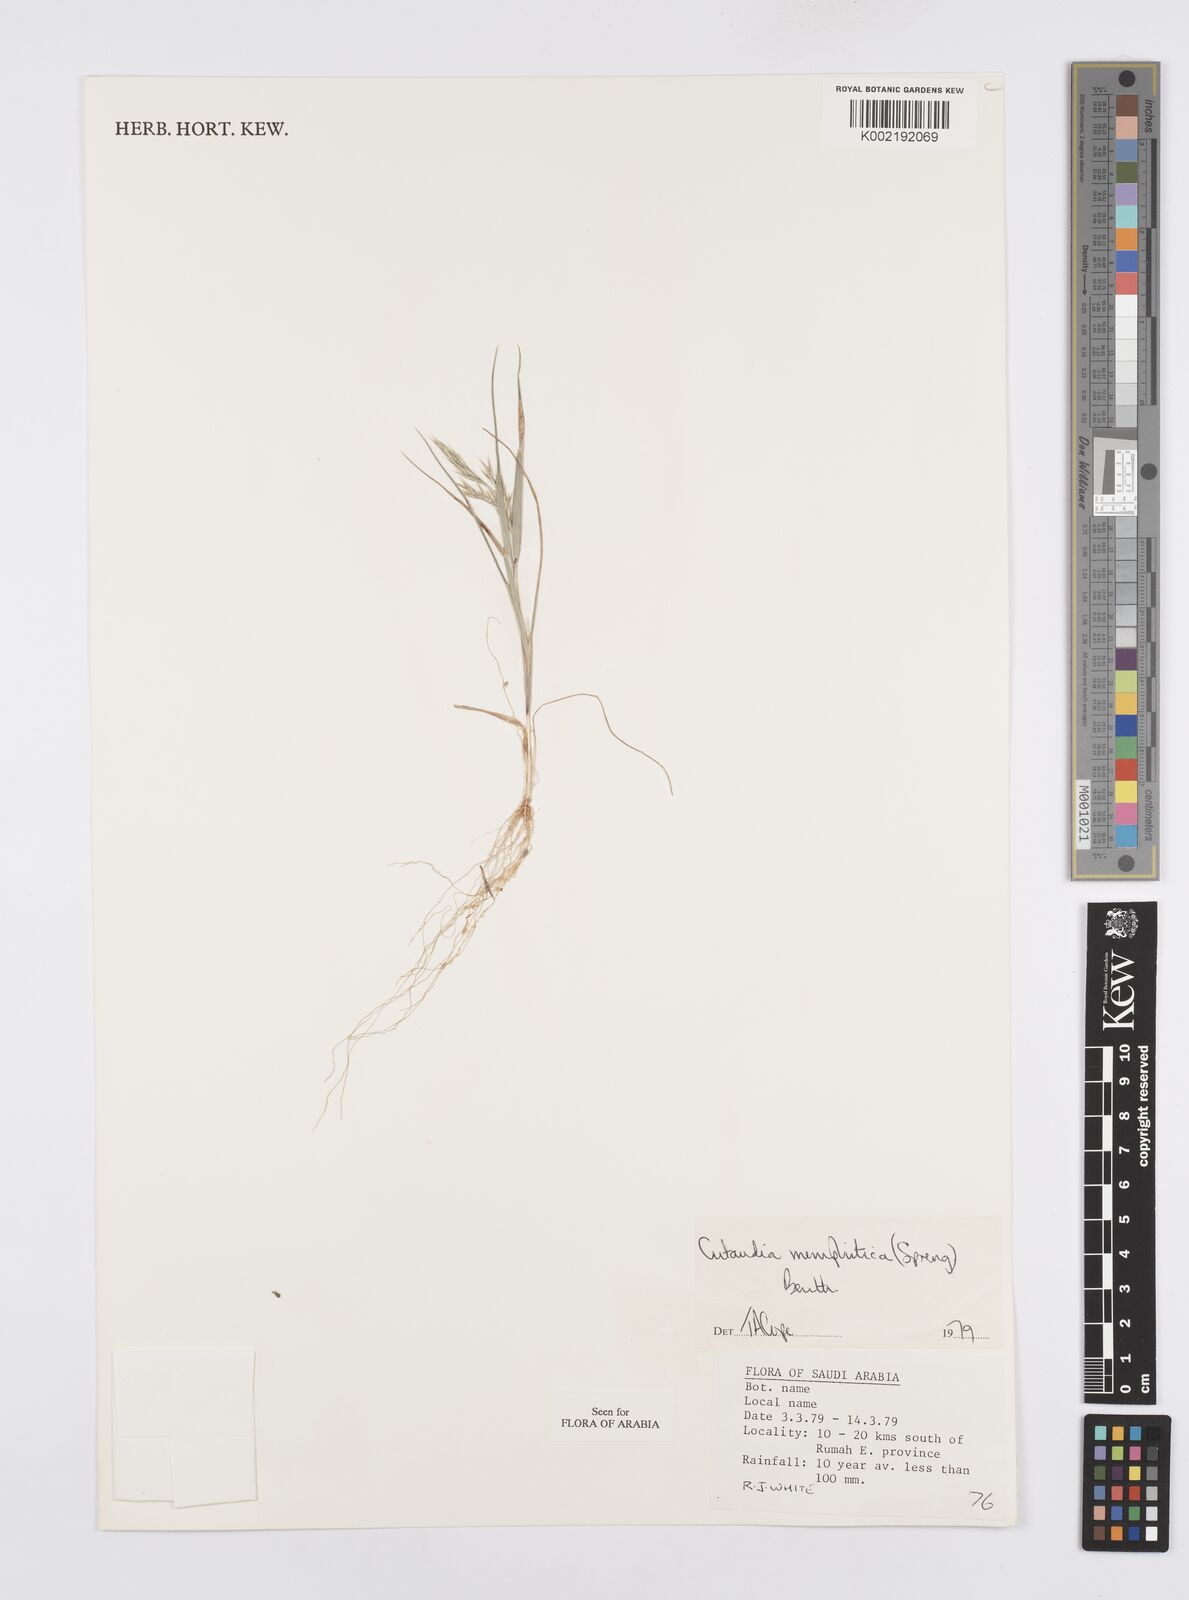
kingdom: Plantae
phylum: Tracheophyta
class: Liliopsida
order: Poales
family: Poaceae
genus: Cutandia
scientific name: Cutandia memphitica
